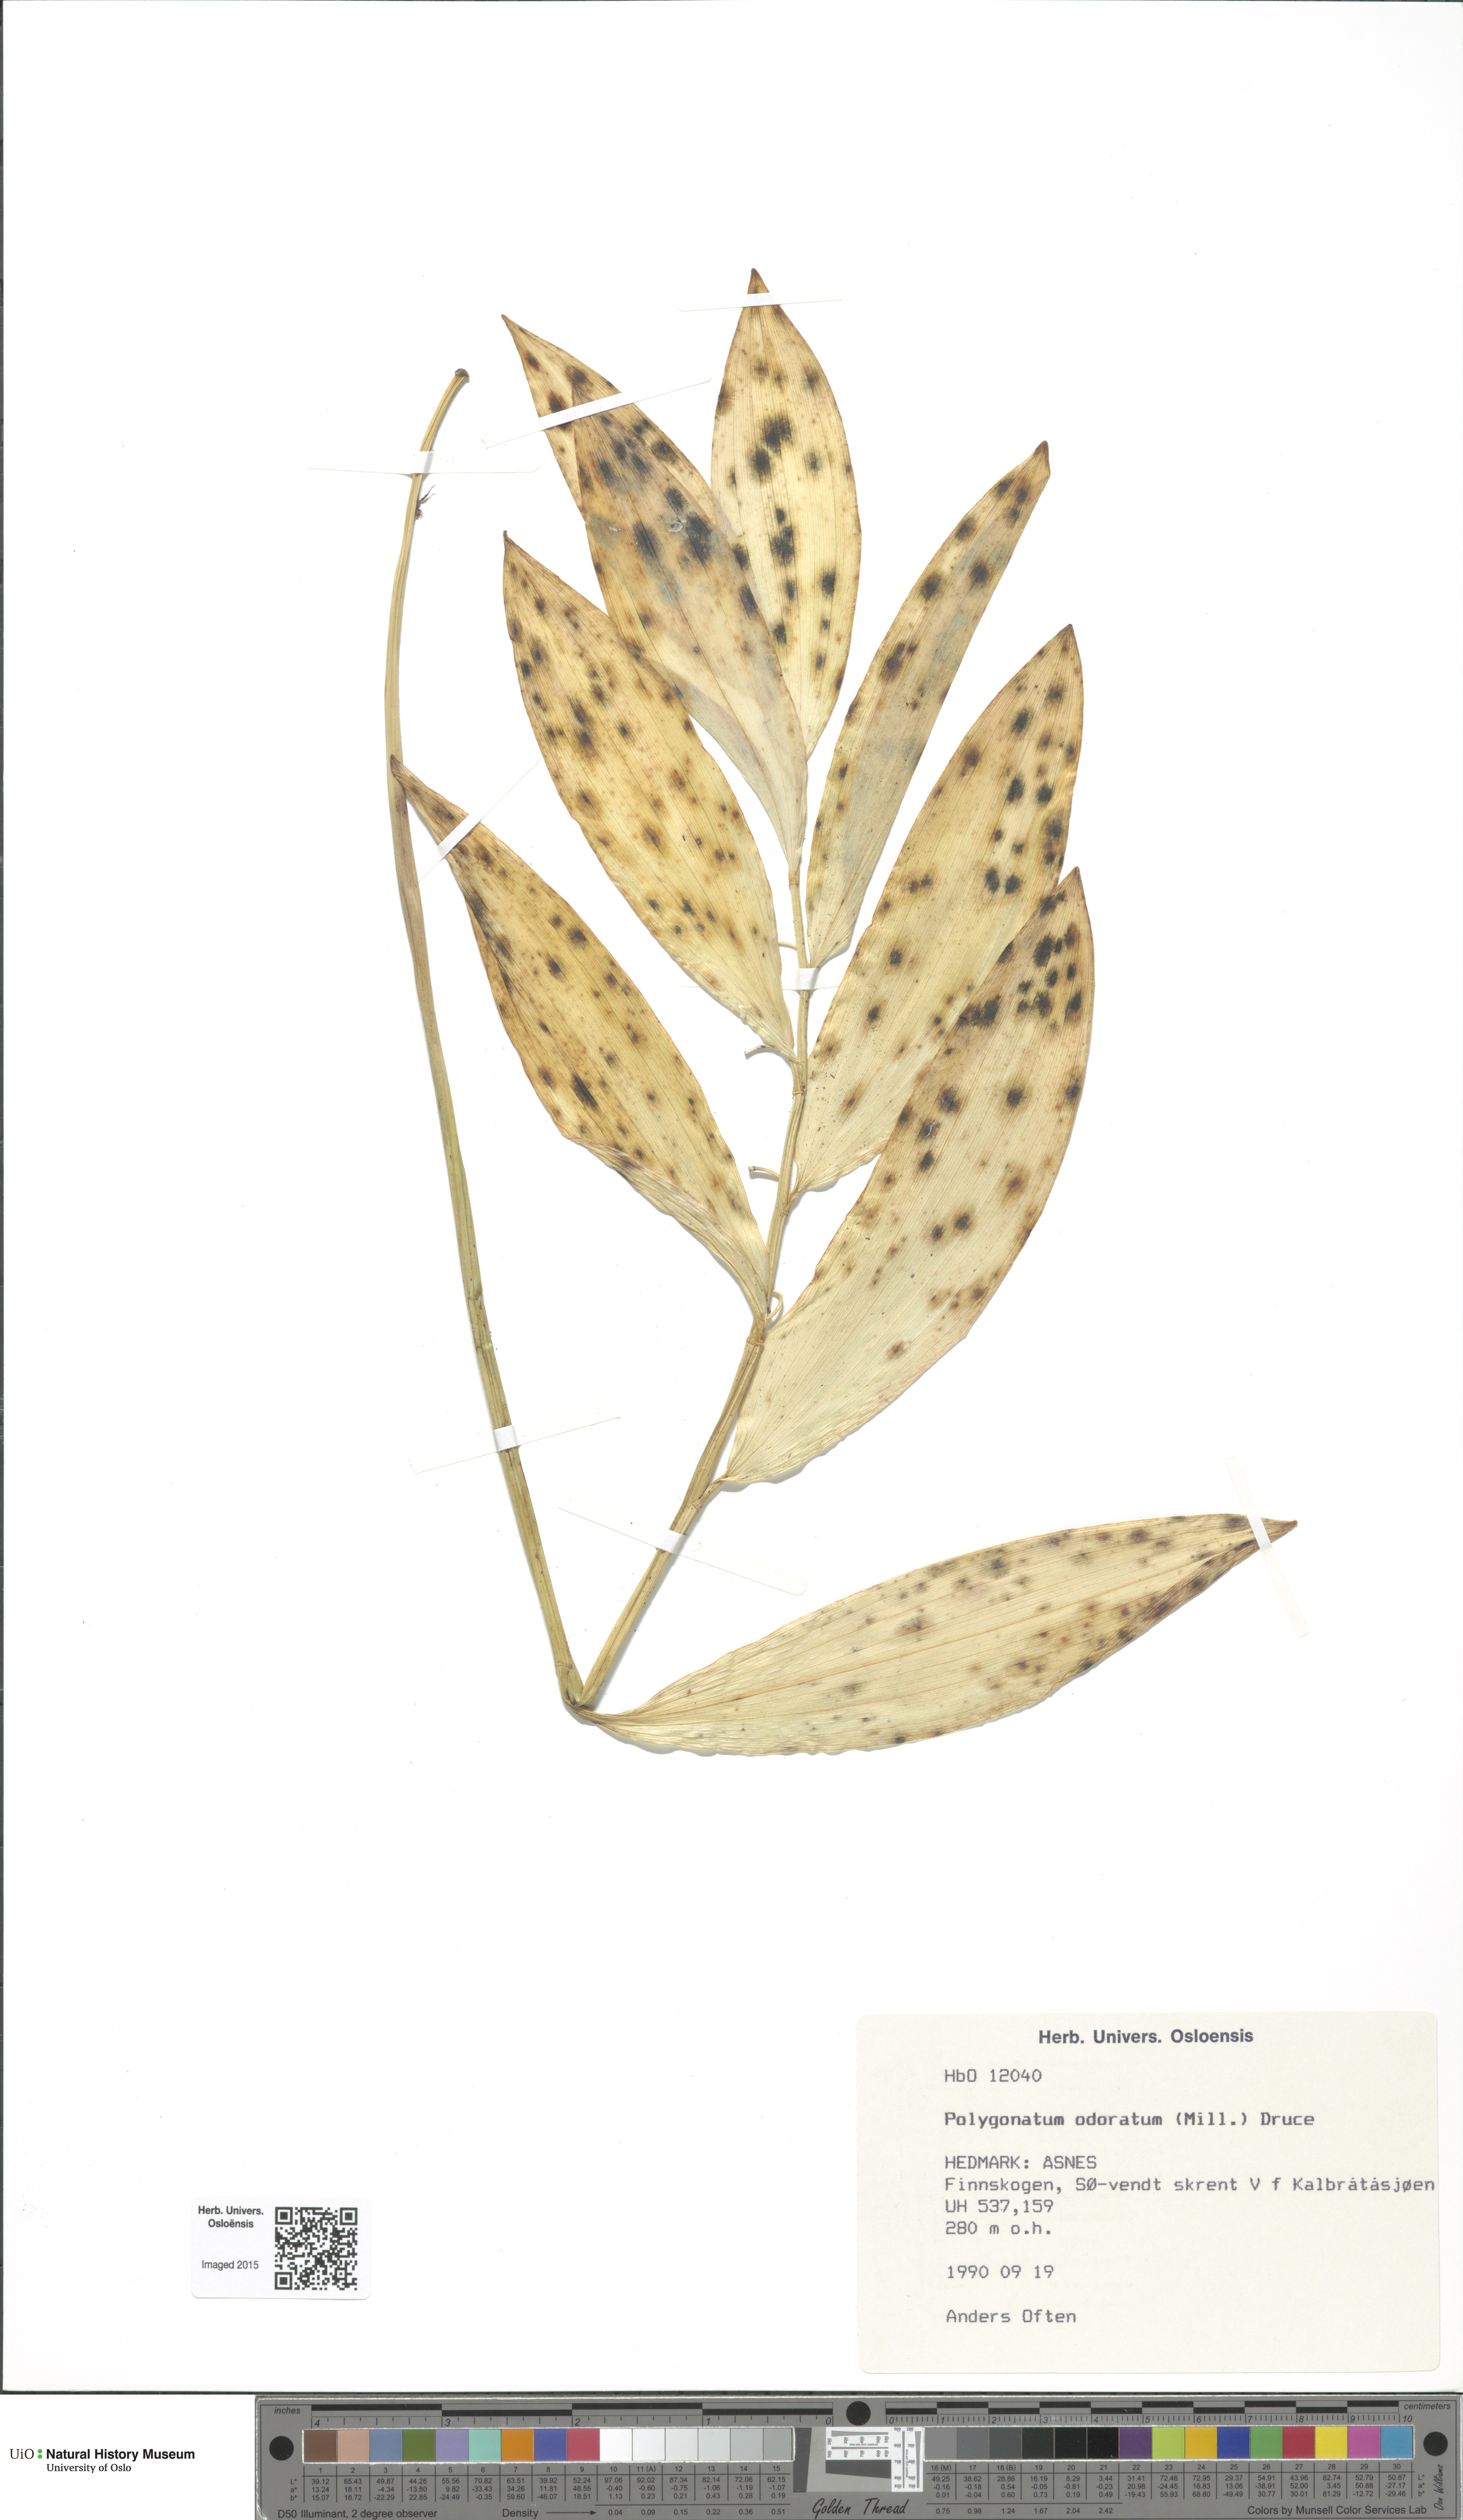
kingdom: Plantae
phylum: Tracheophyta
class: Liliopsida
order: Asparagales
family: Asparagaceae
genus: Polygonatum
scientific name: Polygonatum odoratum
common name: Angular solomon's-seal
